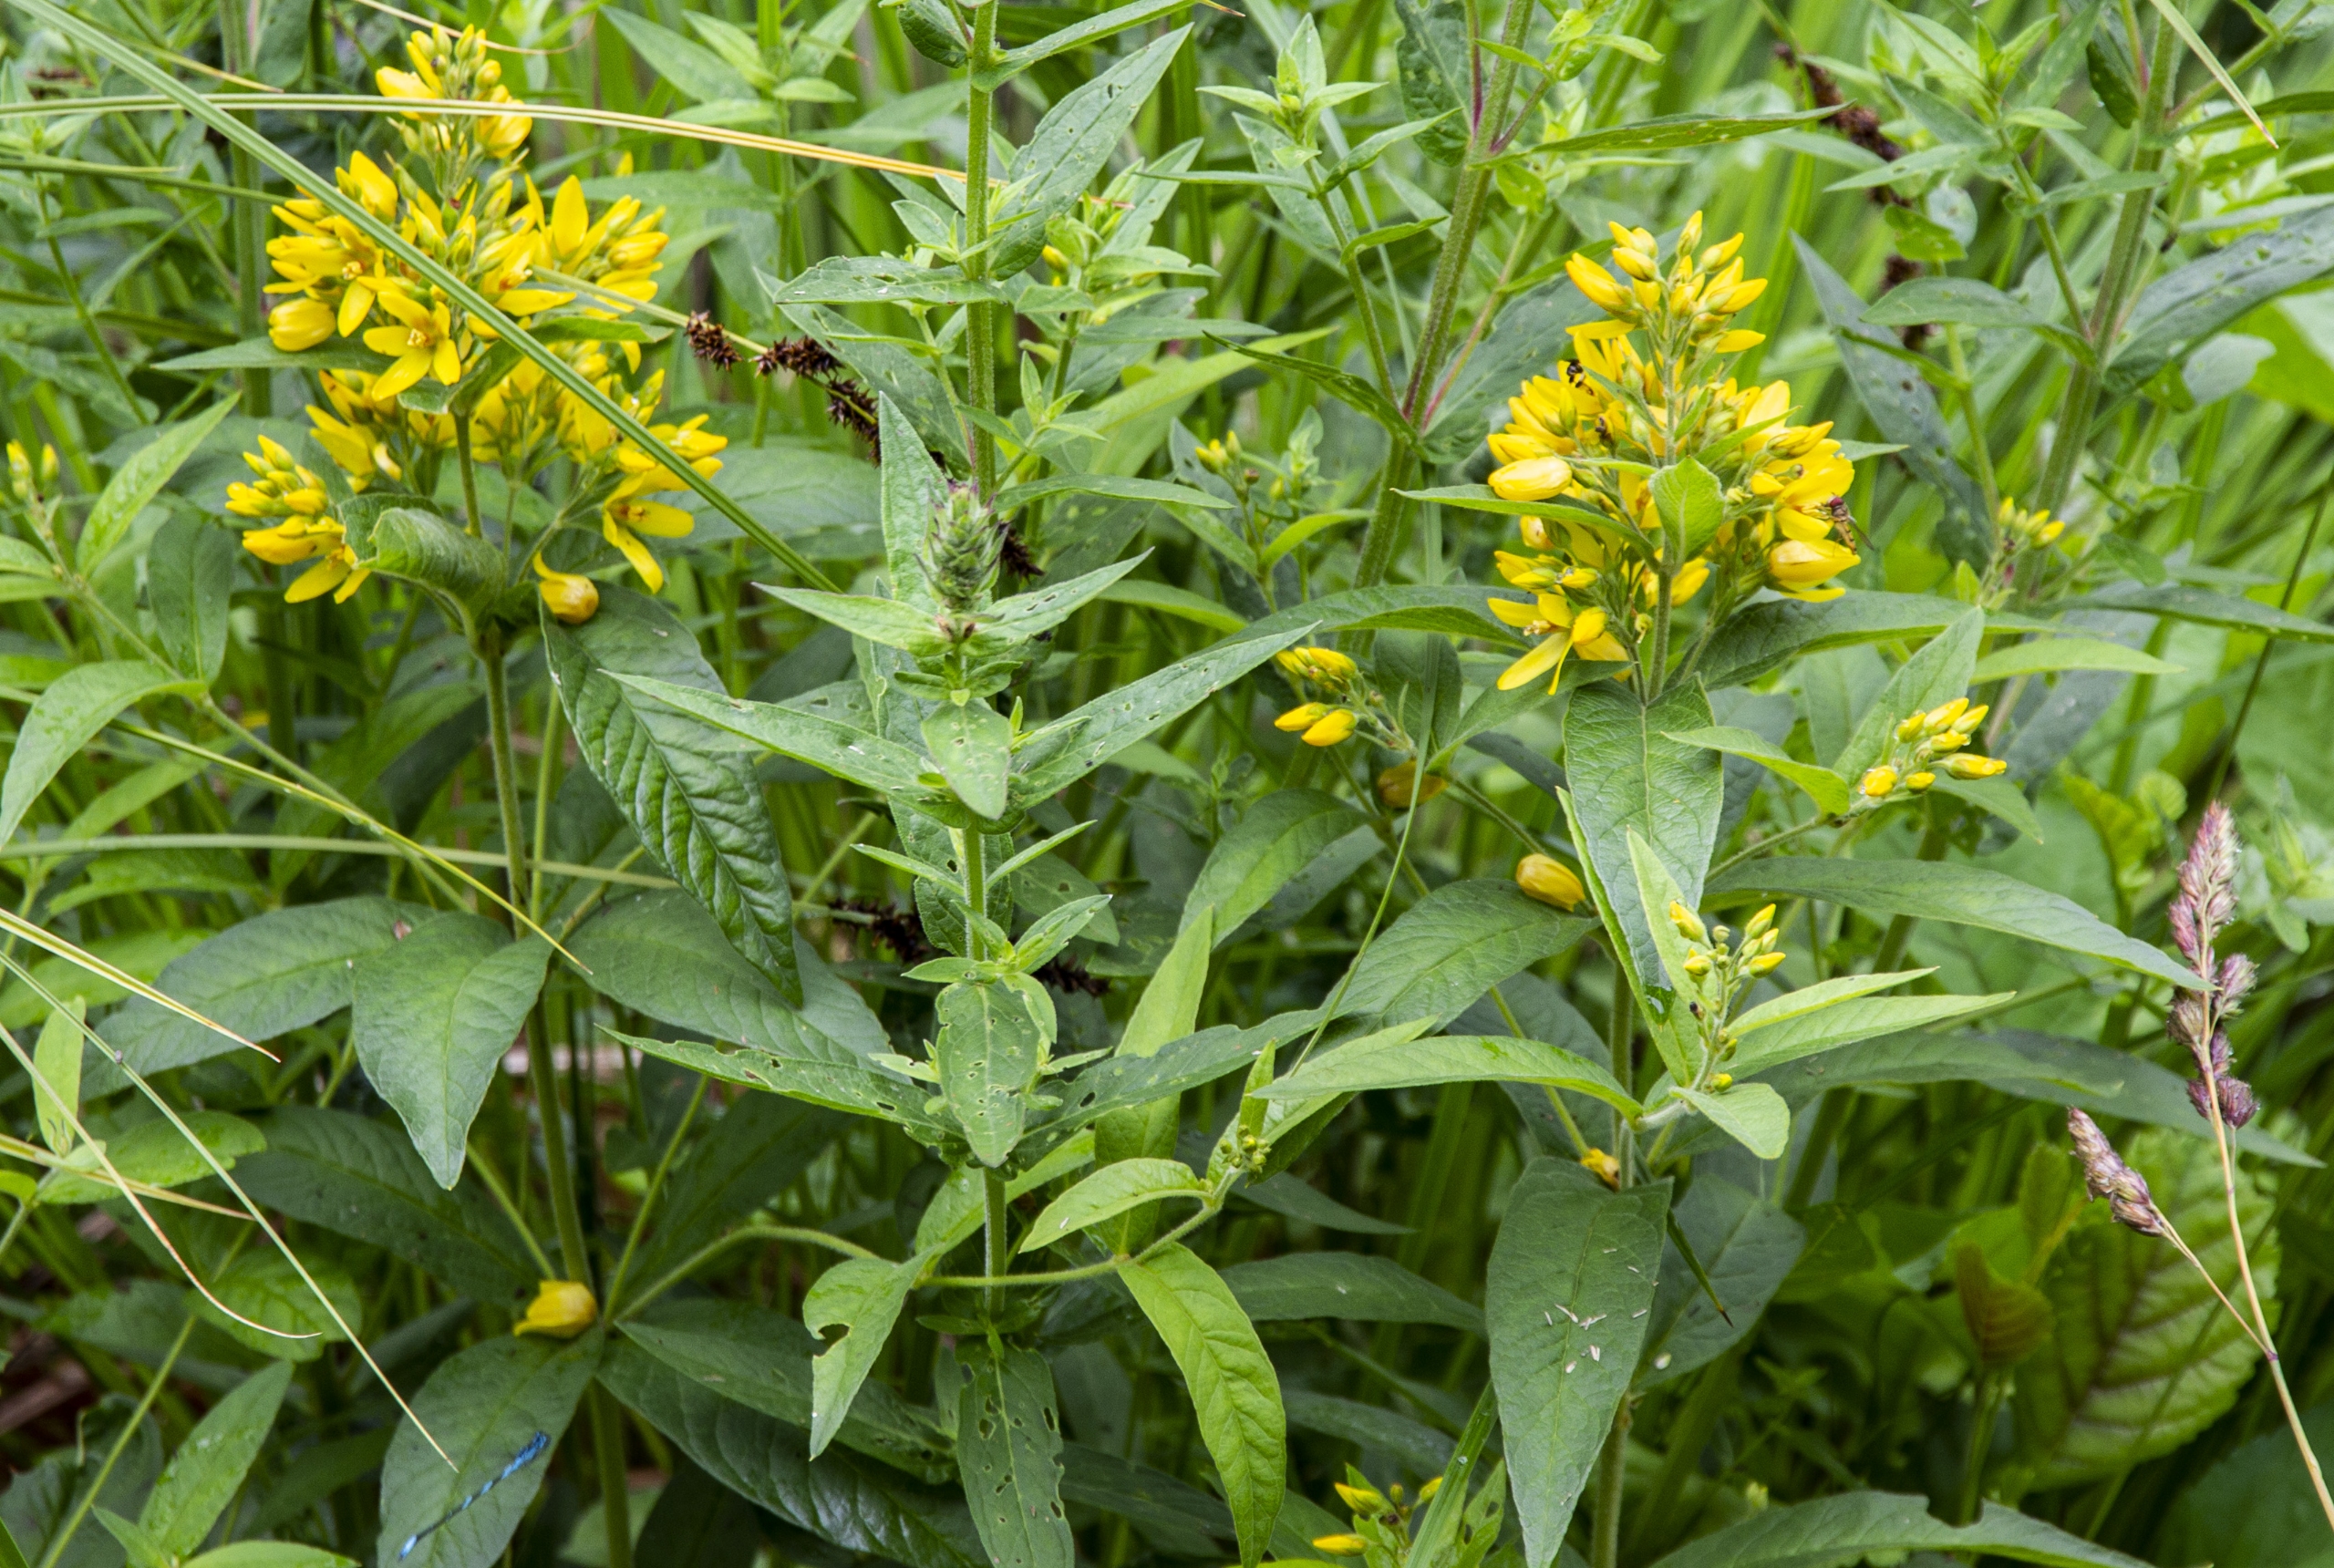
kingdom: Plantae
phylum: Tracheophyta
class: Magnoliopsida
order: Ericales
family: Primulaceae
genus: Lysimachia
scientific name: Lysimachia vulgaris
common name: Almindelig fredløs
